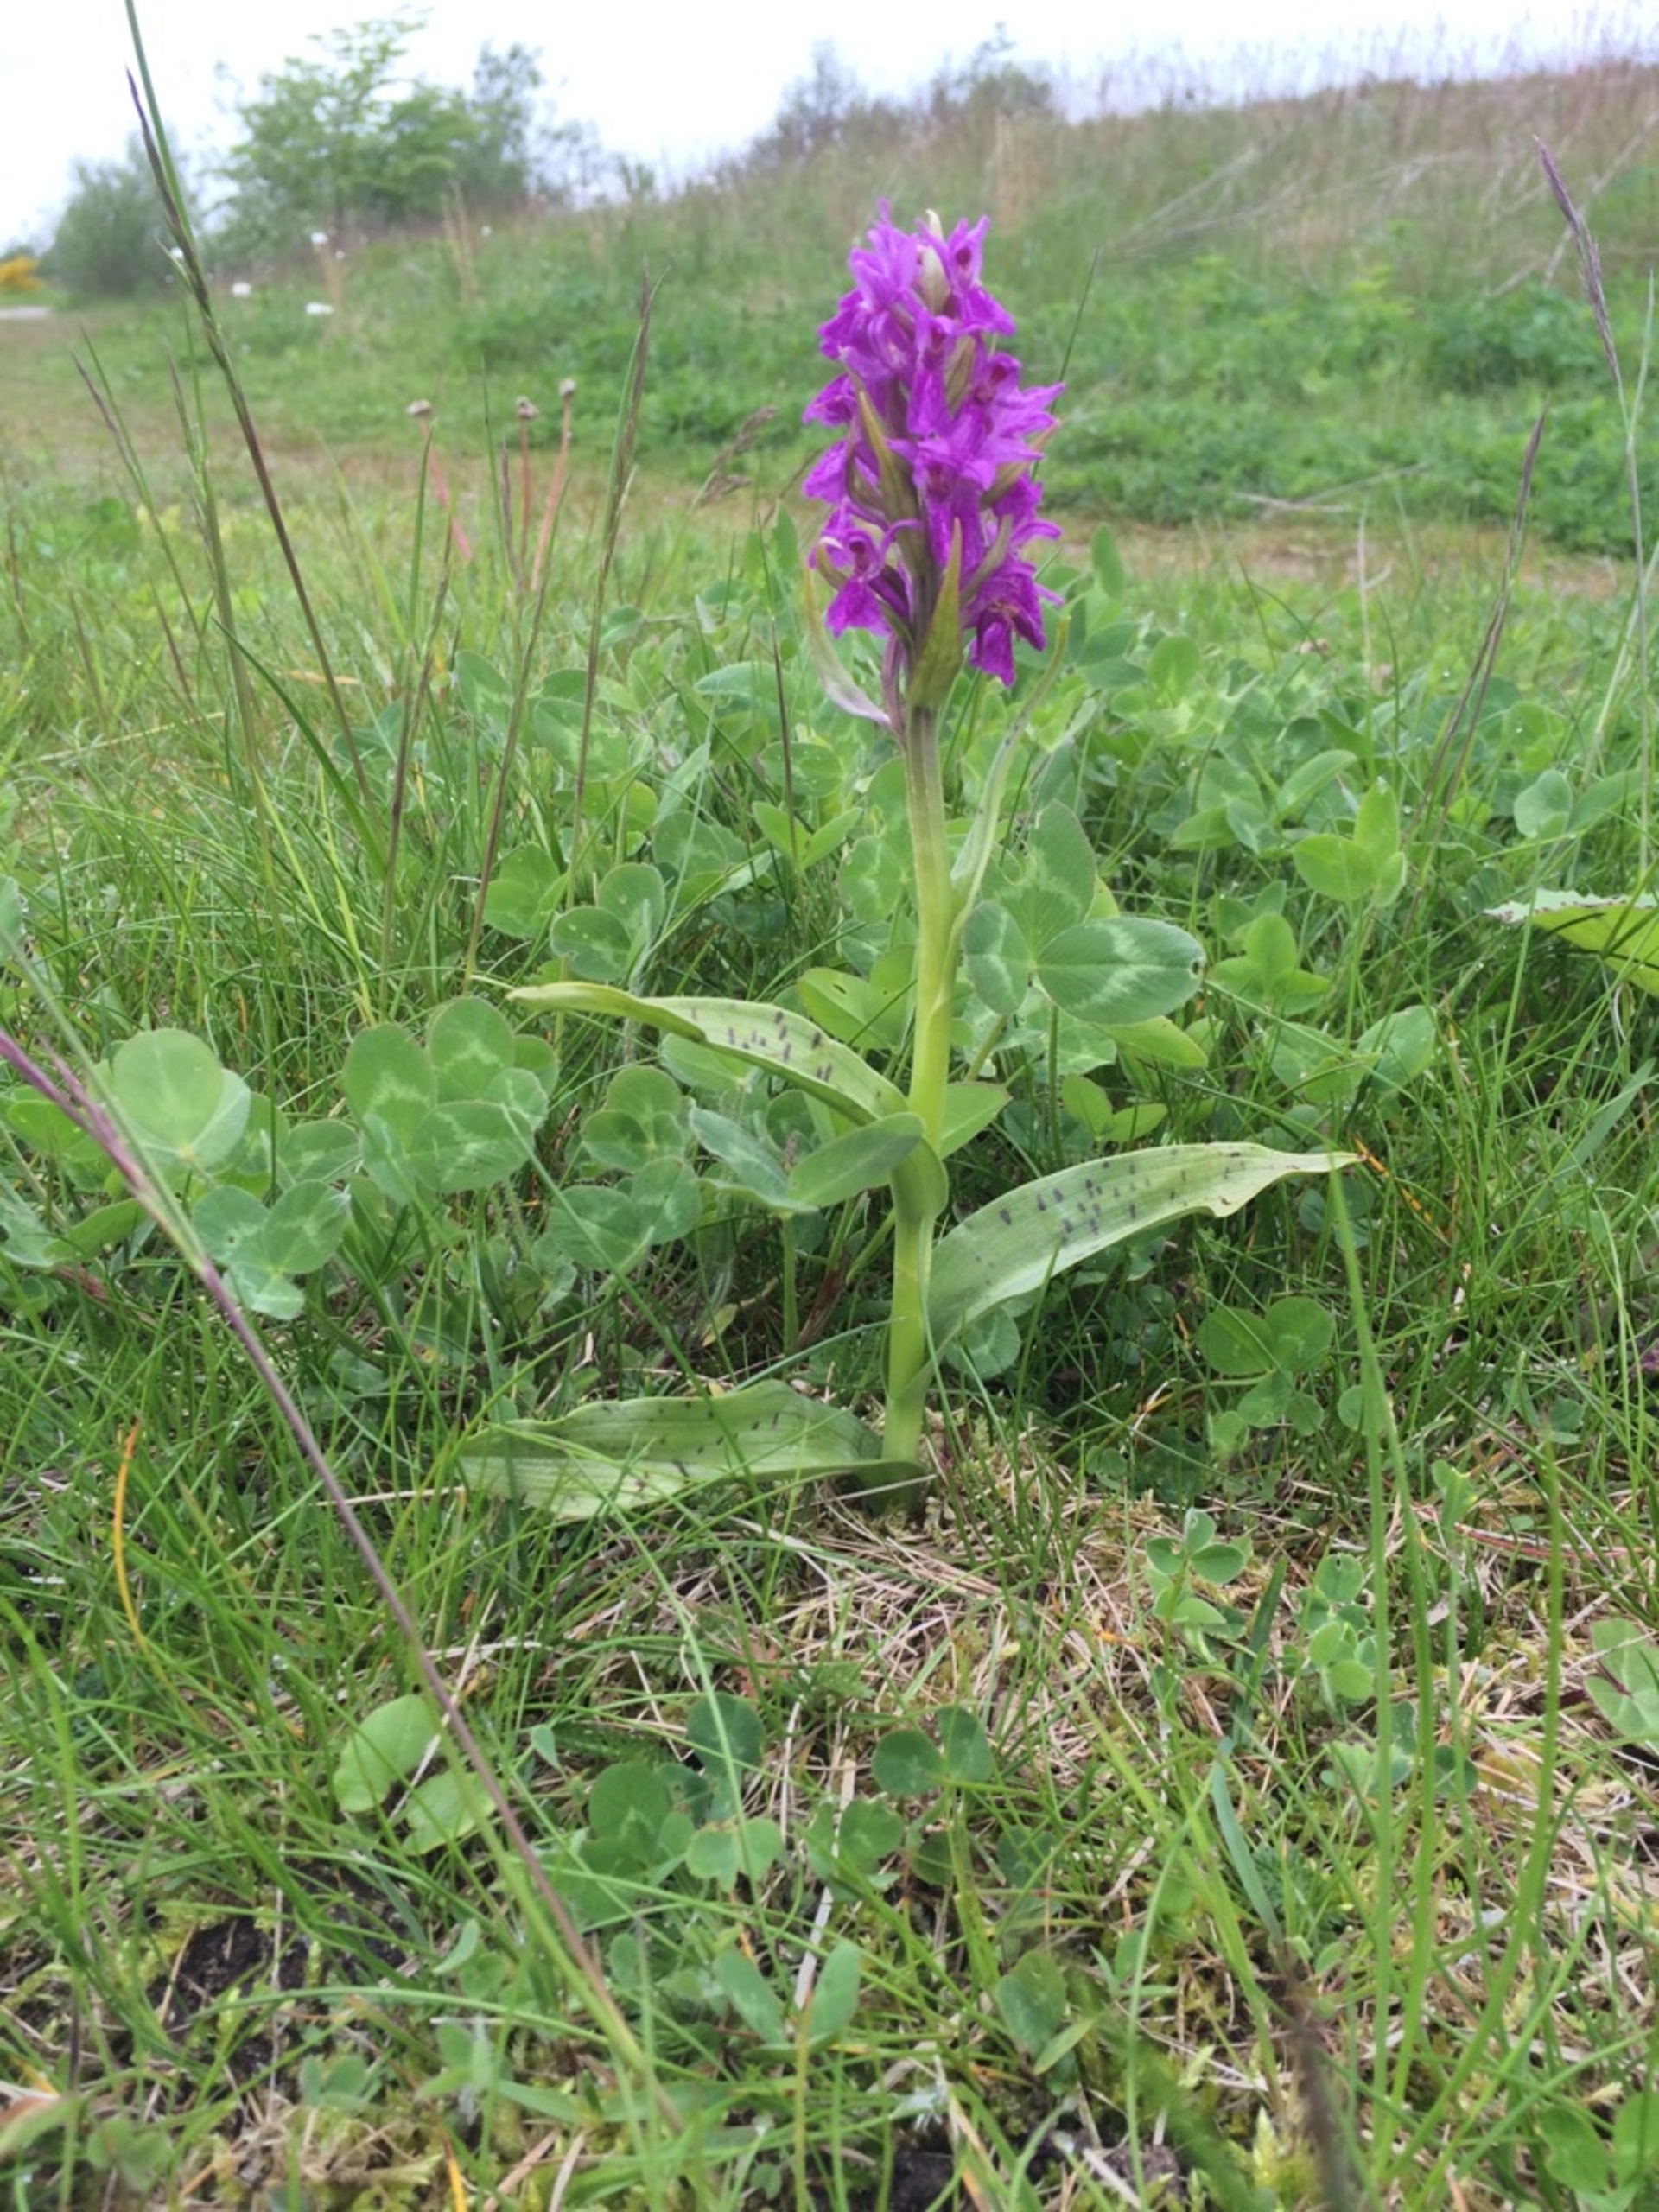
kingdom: Plantae
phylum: Tracheophyta
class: Liliopsida
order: Asparagales
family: Orchidaceae
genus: Dactylorhiza
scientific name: Dactylorhiza majalis
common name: Maj-gøgeurt
